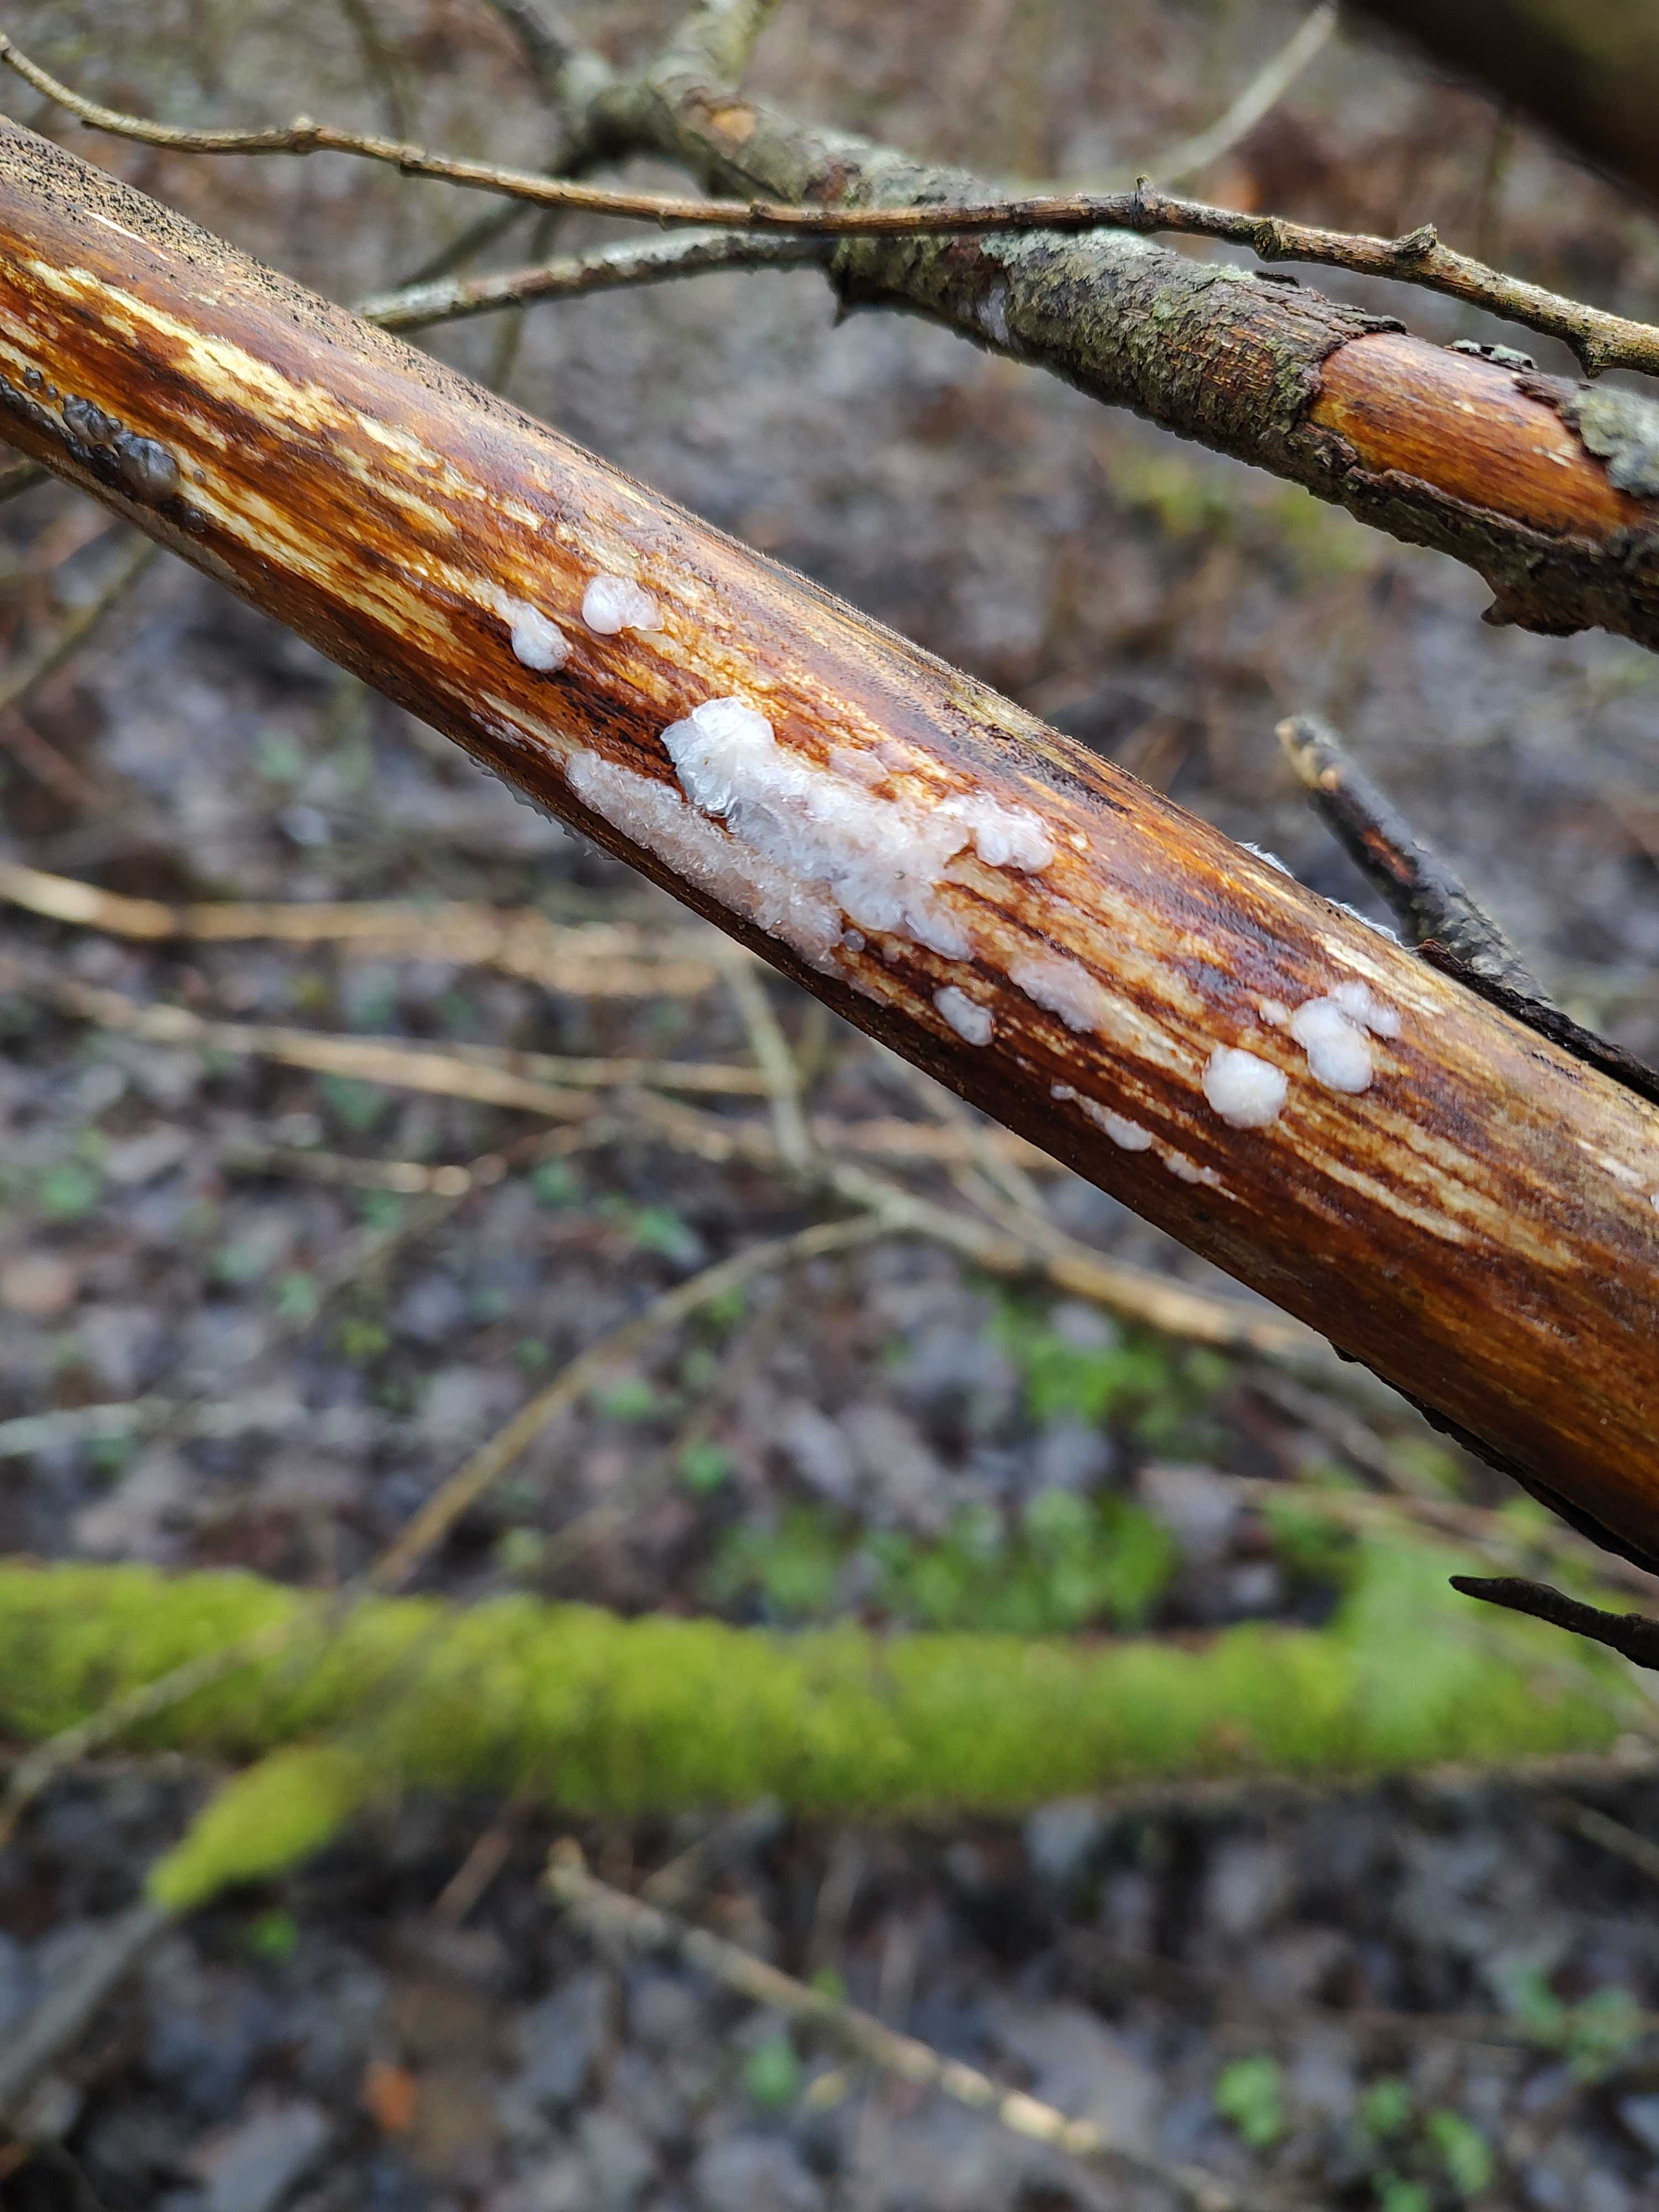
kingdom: Fungi
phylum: Basidiomycota
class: Agaricomycetes
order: Auriculariales
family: Auriculariaceae
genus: Exidia
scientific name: Exidia thuretiana
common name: hvidlig bævretop
